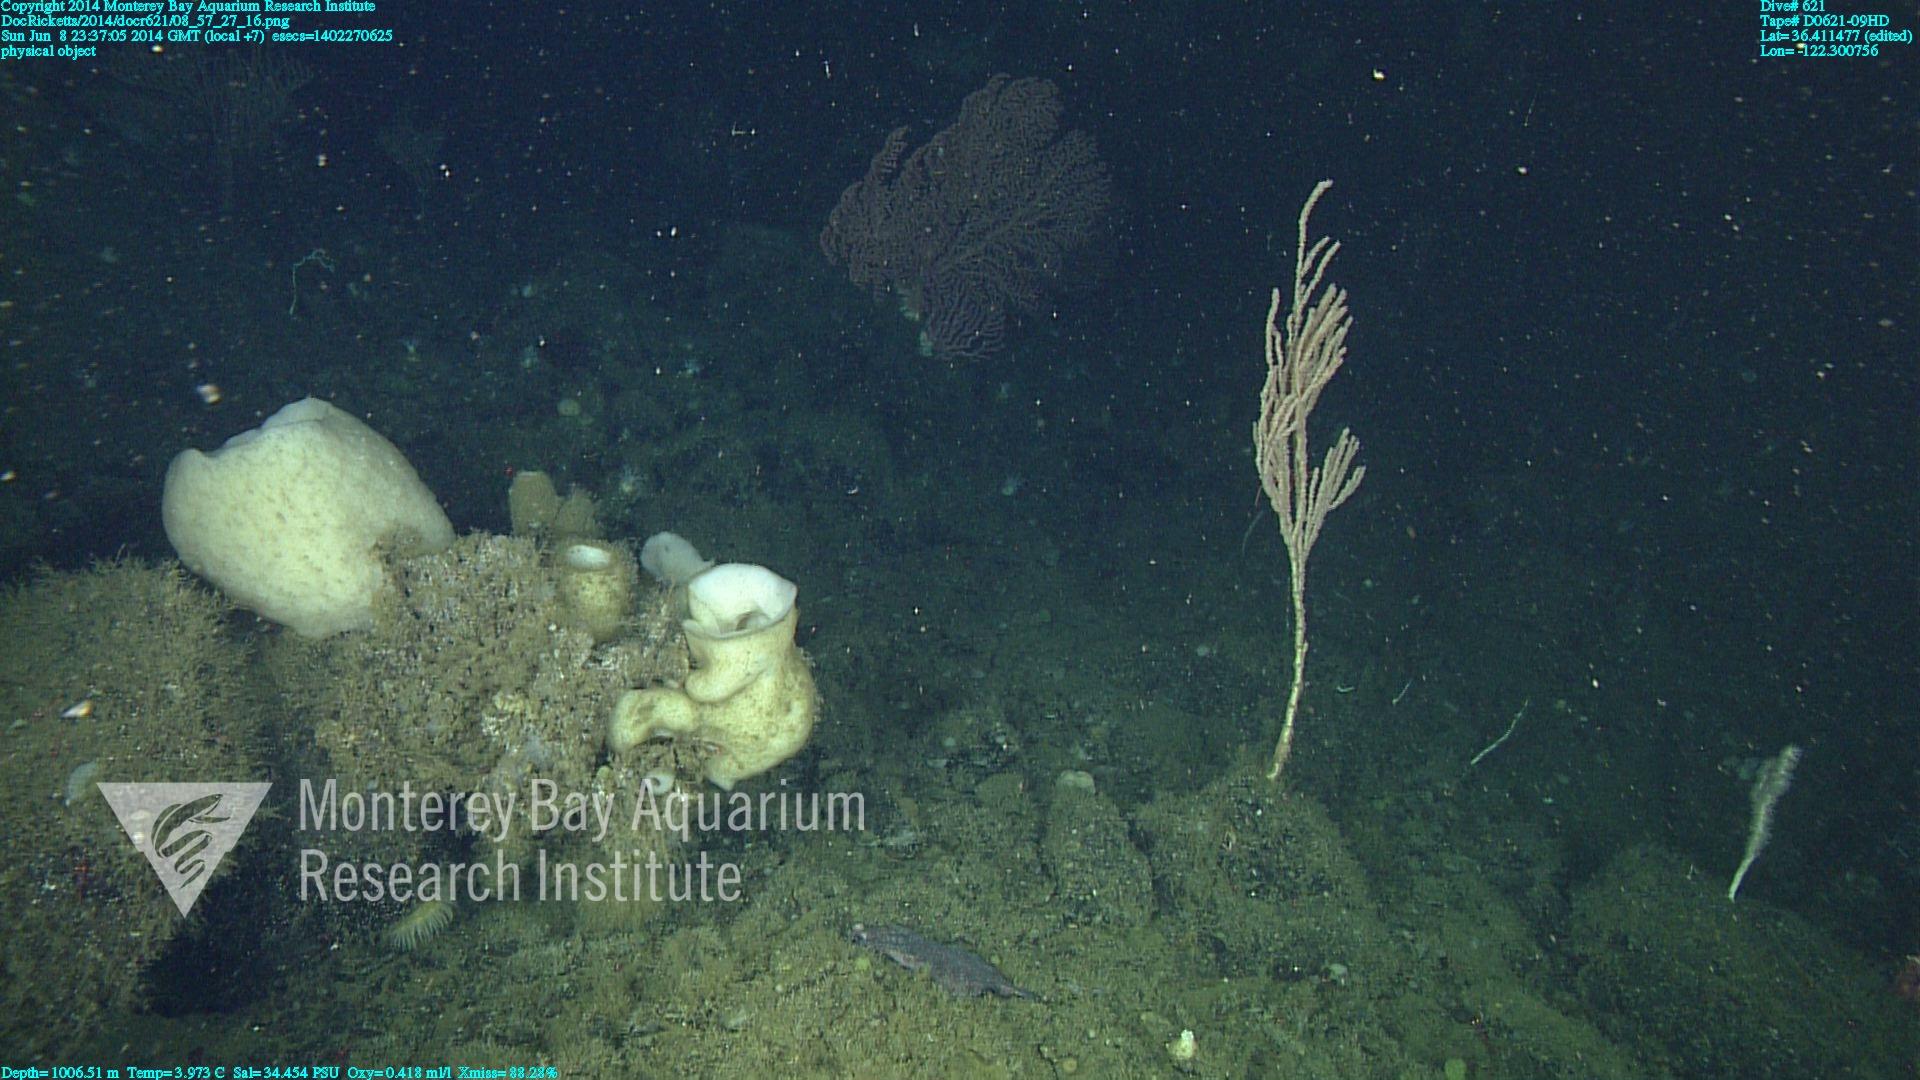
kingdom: Animalia
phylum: Cnidaria
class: Anthozoa
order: Scleralcyonacea
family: Keratoisididae
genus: Isidella
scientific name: Isidella
